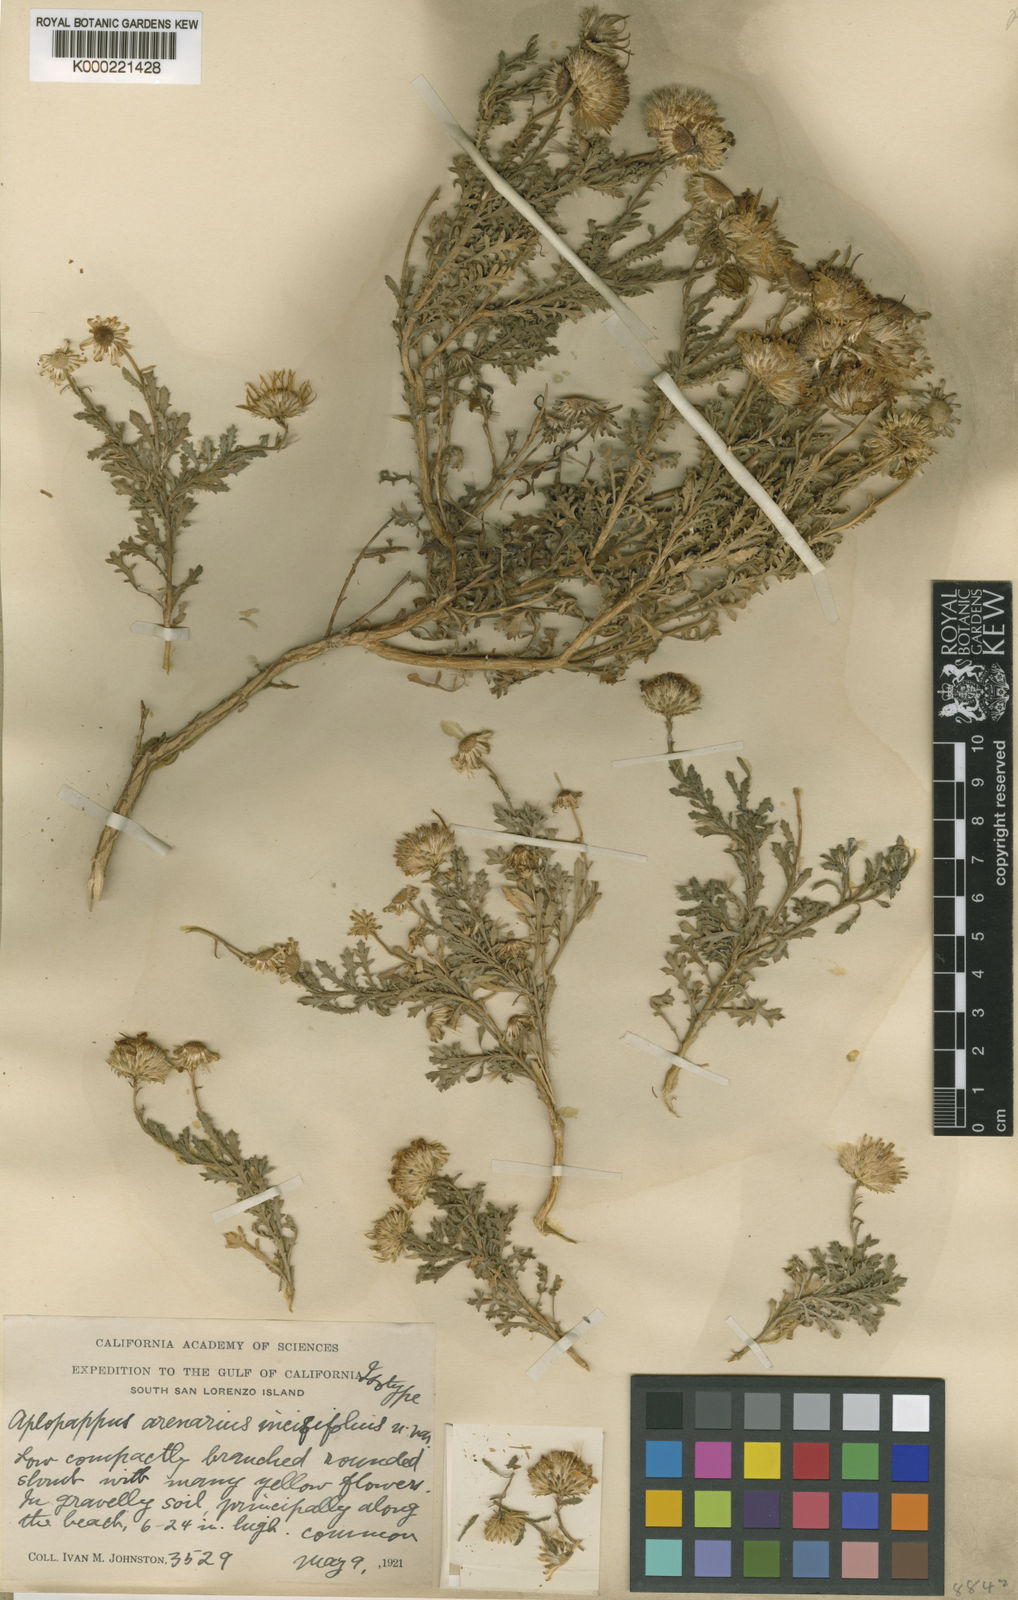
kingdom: Plantae
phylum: Tracheophyta
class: Magnoliopsida
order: Asterales
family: Asteraceae
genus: Xanthisma
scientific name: Xanthisma spinulosum
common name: Spiny goldenweed
